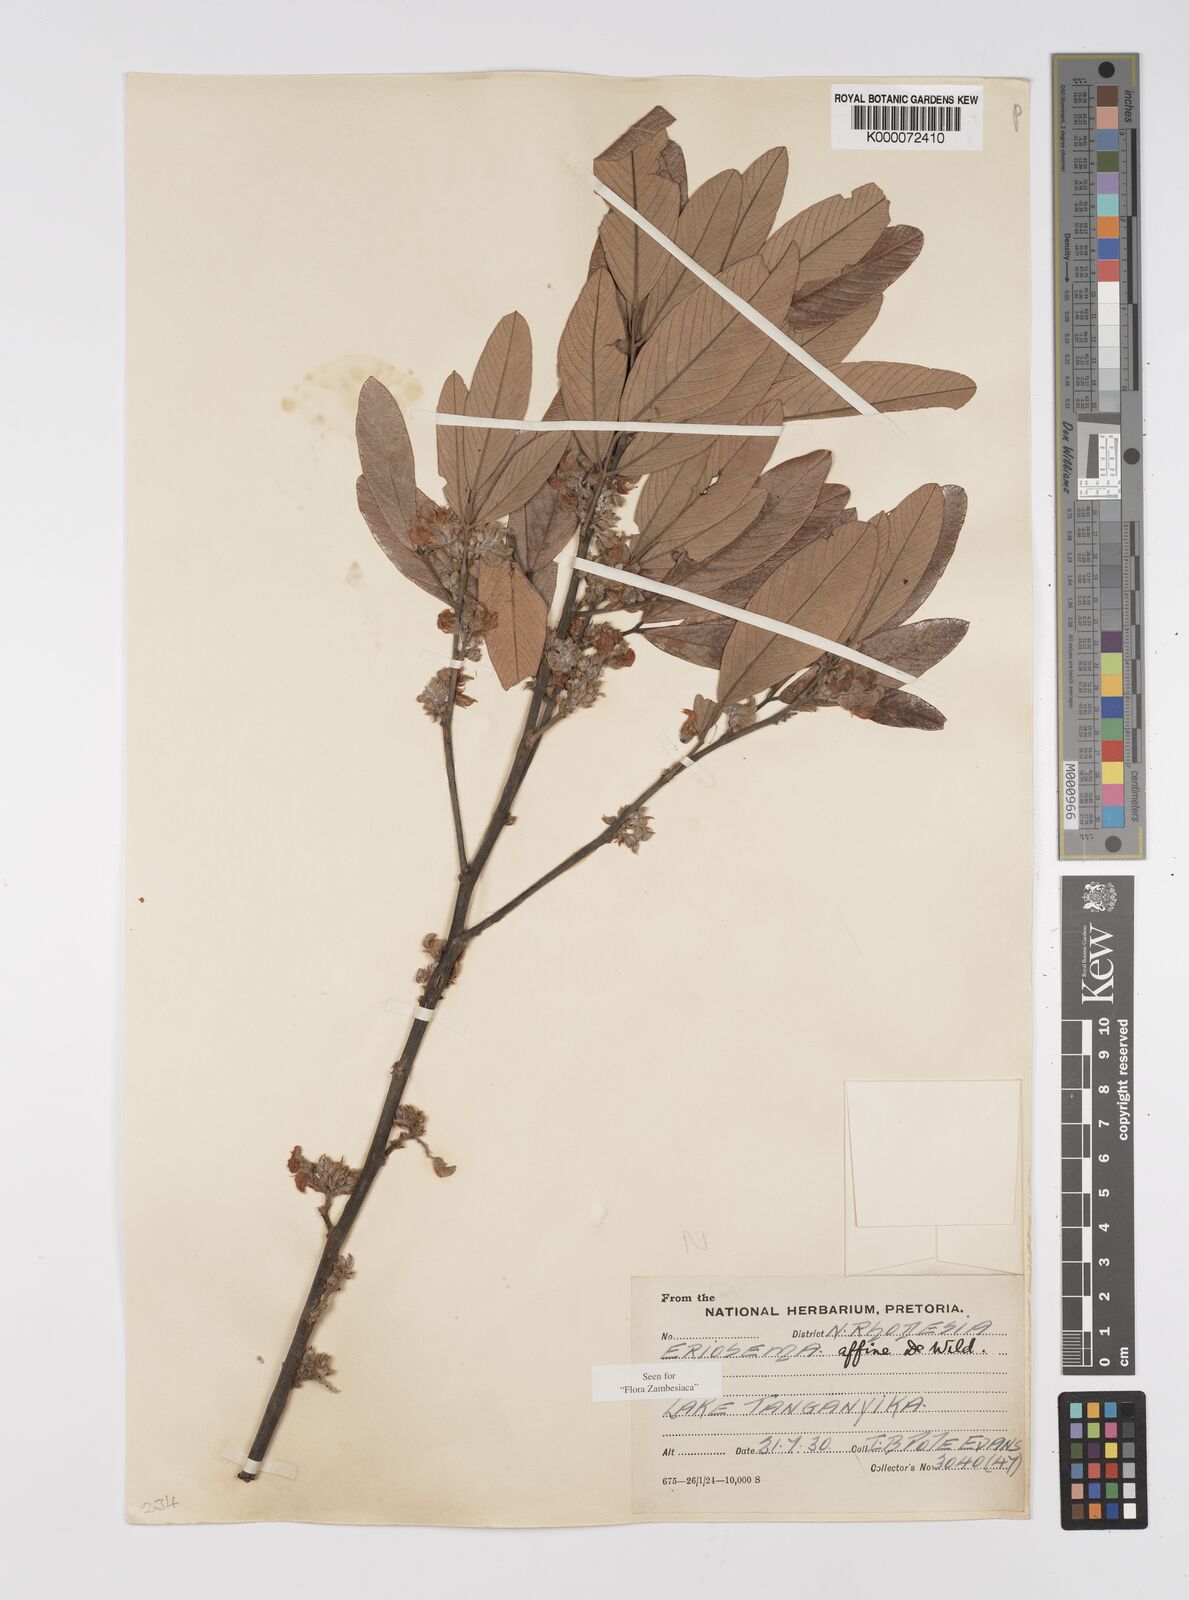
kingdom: Plantae
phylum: Tracheophyta
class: Magnoliopsida
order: Fabales
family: Fabaceae
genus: Eriosema
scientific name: Eriosema affine
